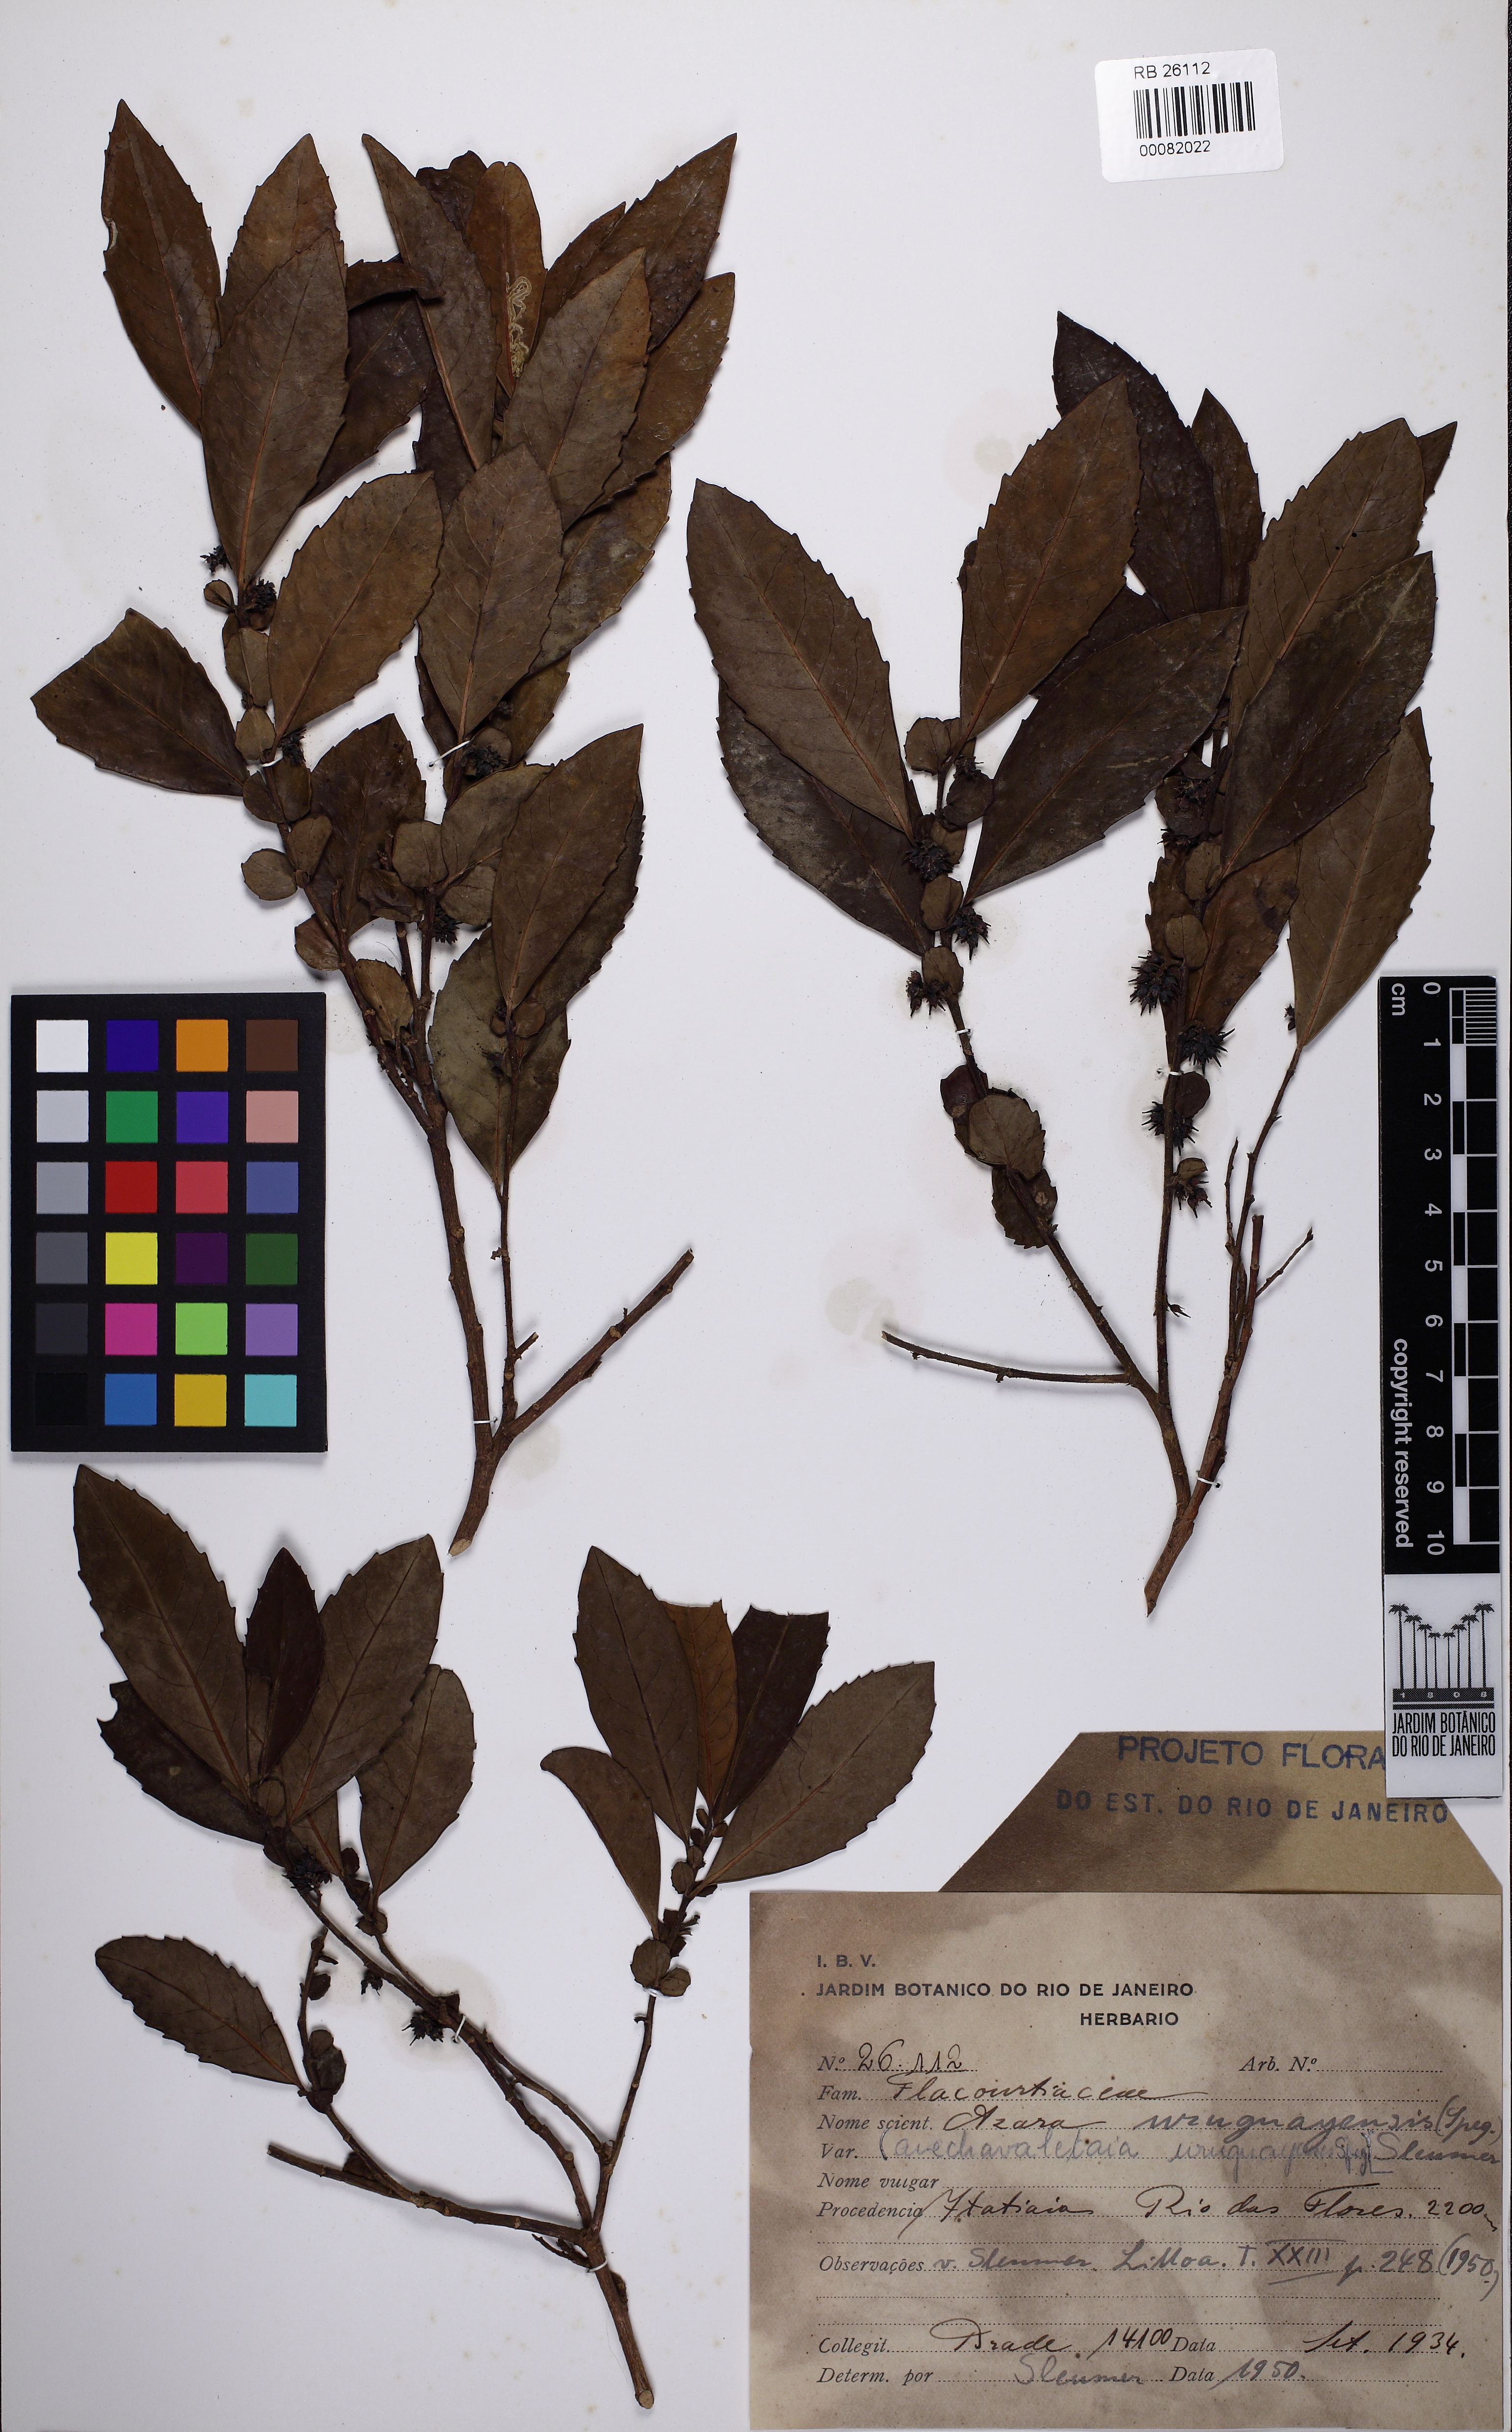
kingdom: Plantae
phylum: Tracheophyta
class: Magnoliopsida
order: Malpighiales
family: Salicaceae
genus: Azara
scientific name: Azara uruguayensis
